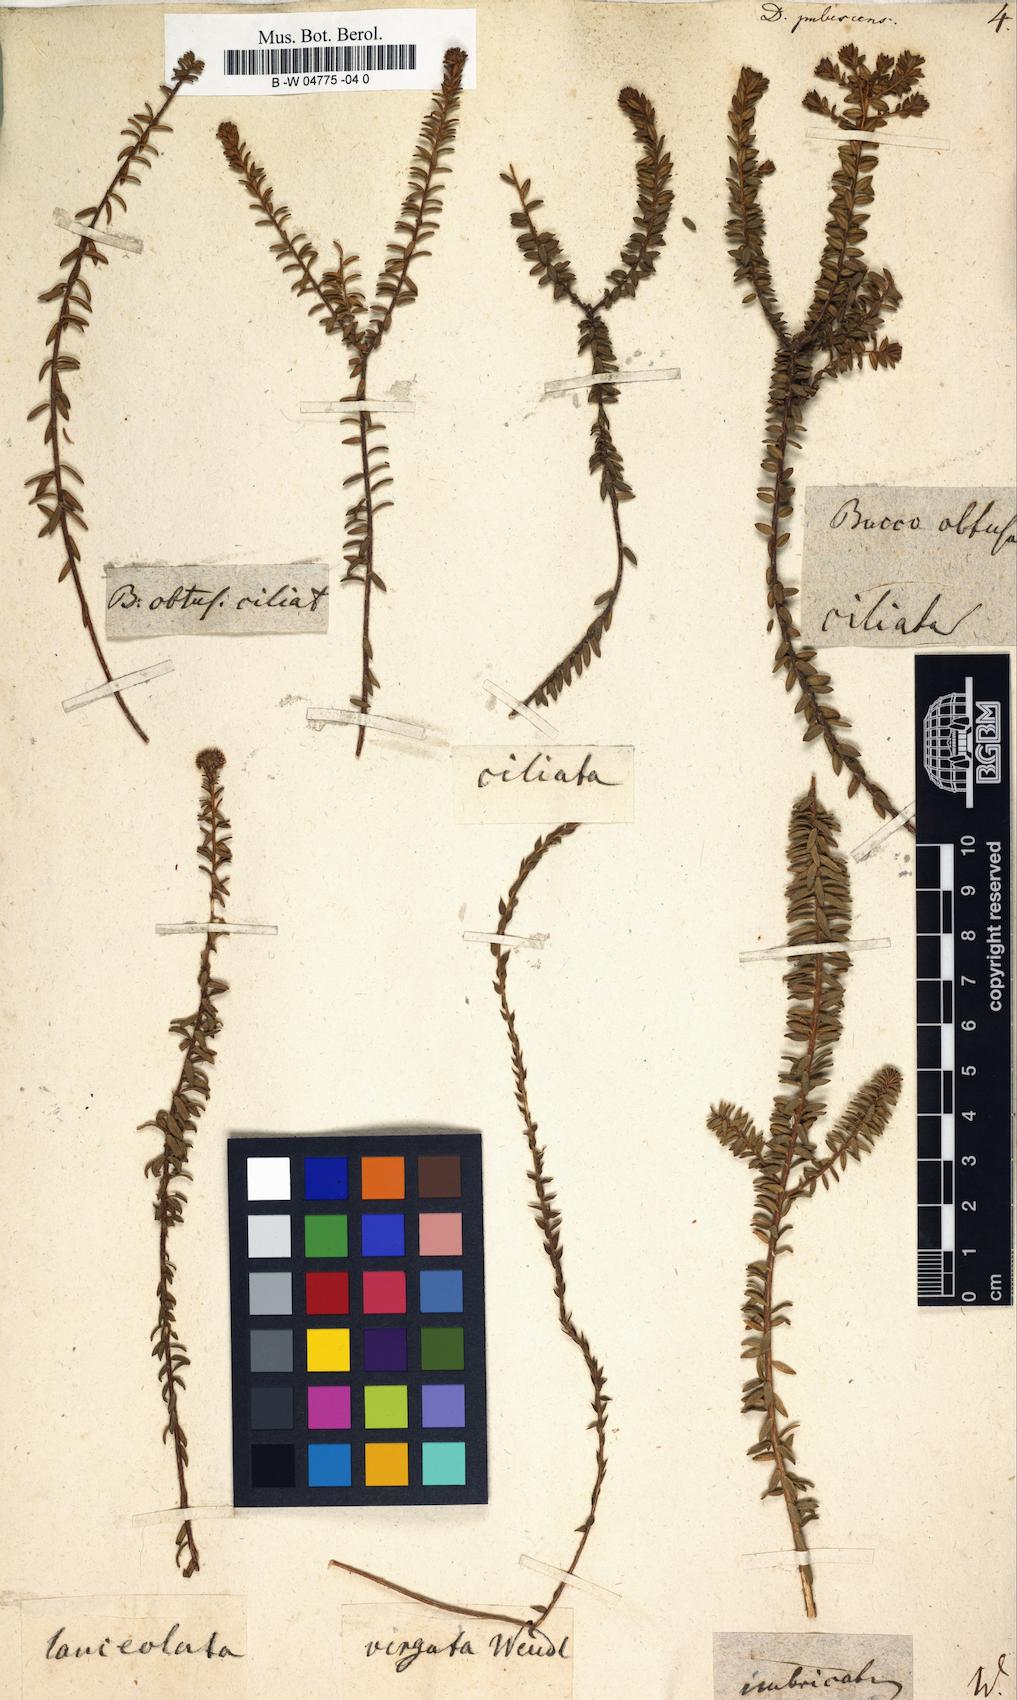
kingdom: Plantae
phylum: Tracheophyta
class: Magnoliopsida
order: Sapindales
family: Rutaceae
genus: Agathosma
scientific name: Agathosma corymbosa
